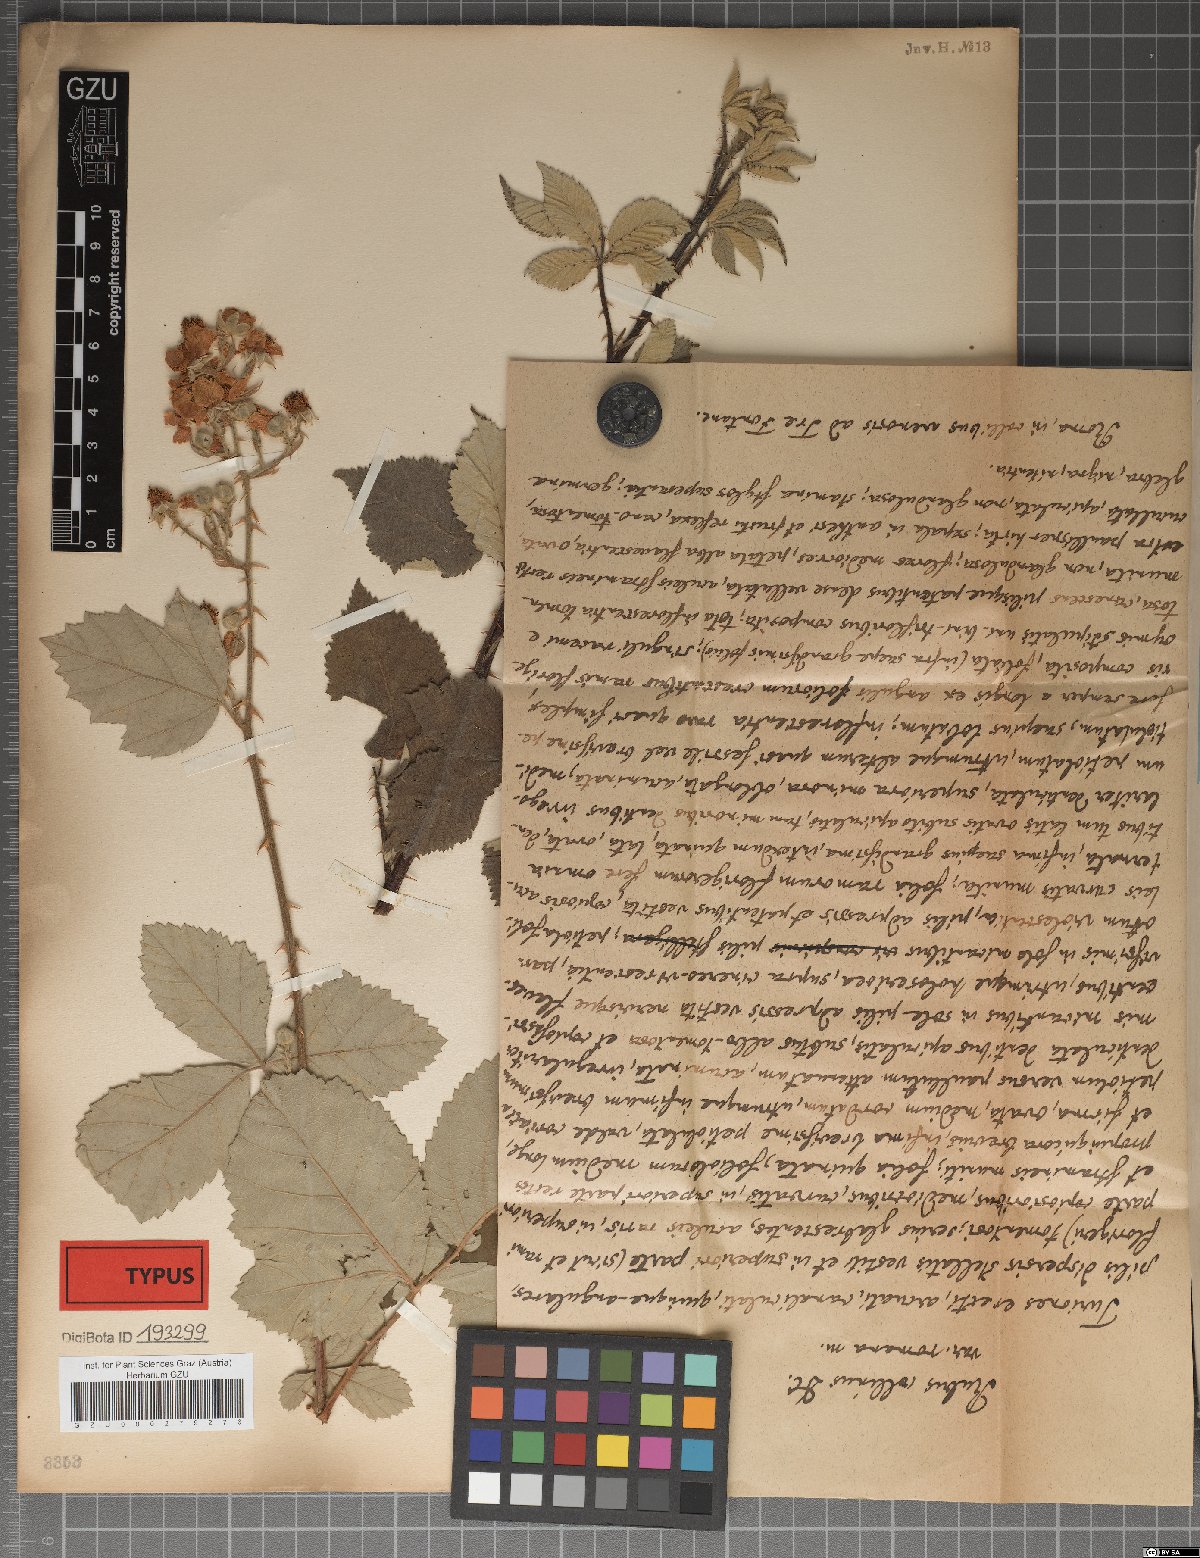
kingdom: Plantae
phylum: Tracheophyta
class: Magnoliopsida
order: Rosales
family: Rosaceae
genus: Rubus
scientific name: Rubus collinus
